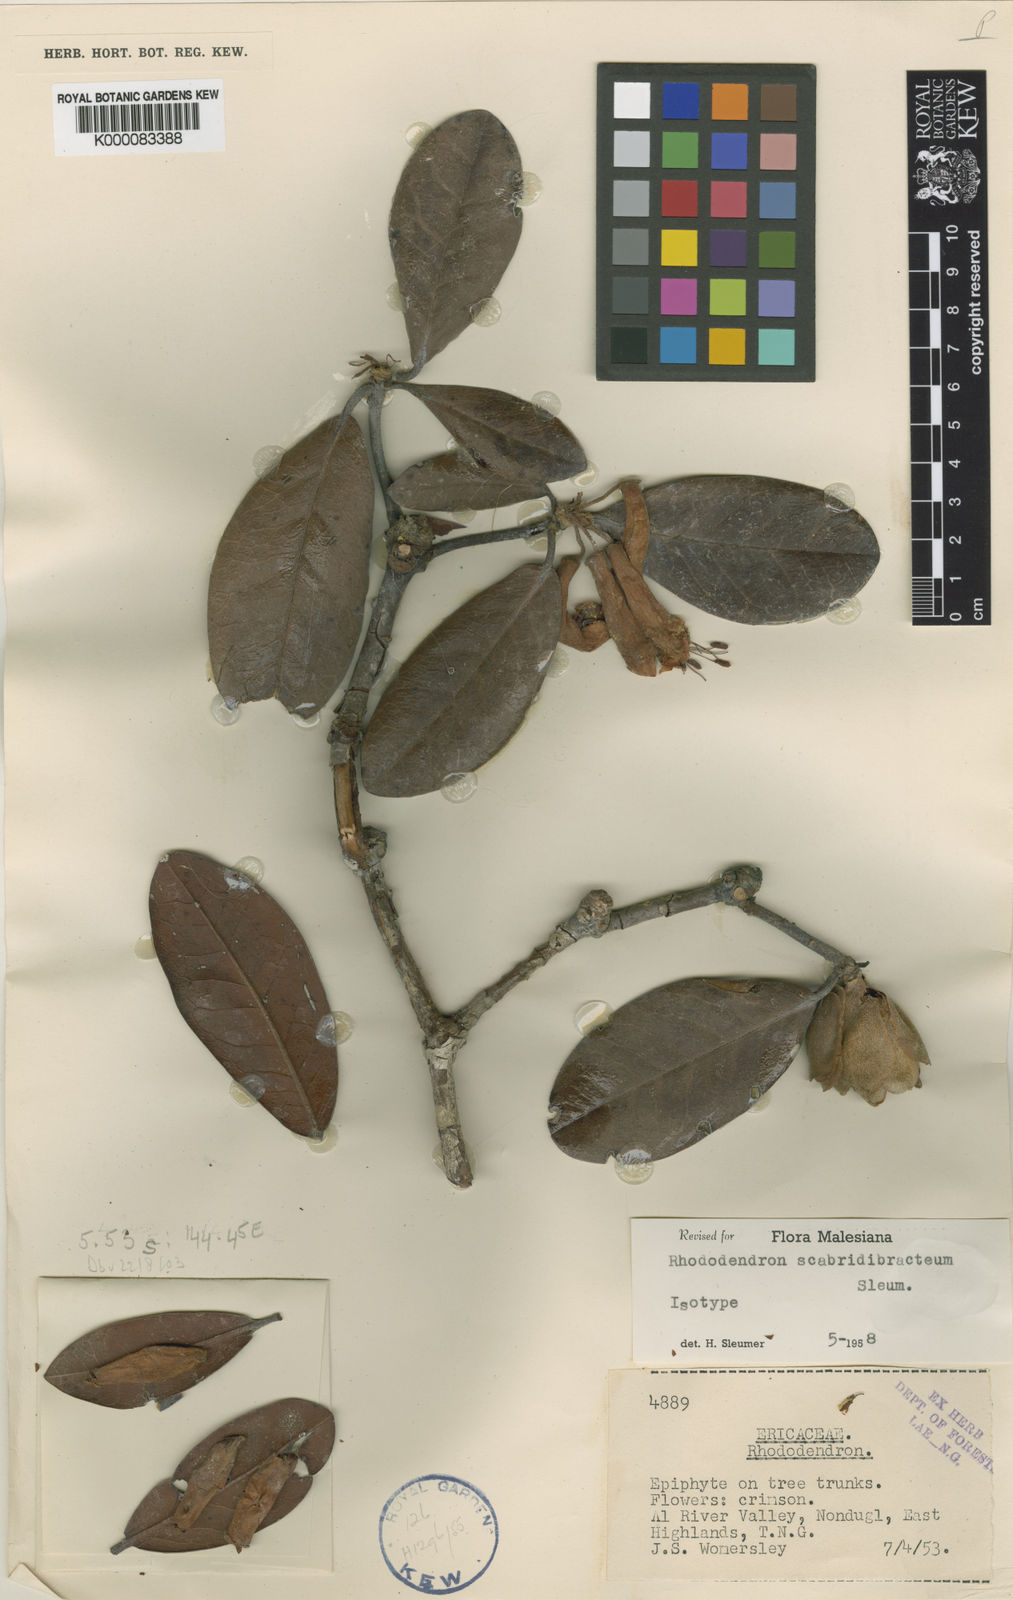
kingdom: Plantae
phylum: Tracheophyta
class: Magnoliopsida
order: Ericales
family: Ericaceae
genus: Rhododendron
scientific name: Rhododendron scabridibracteum
